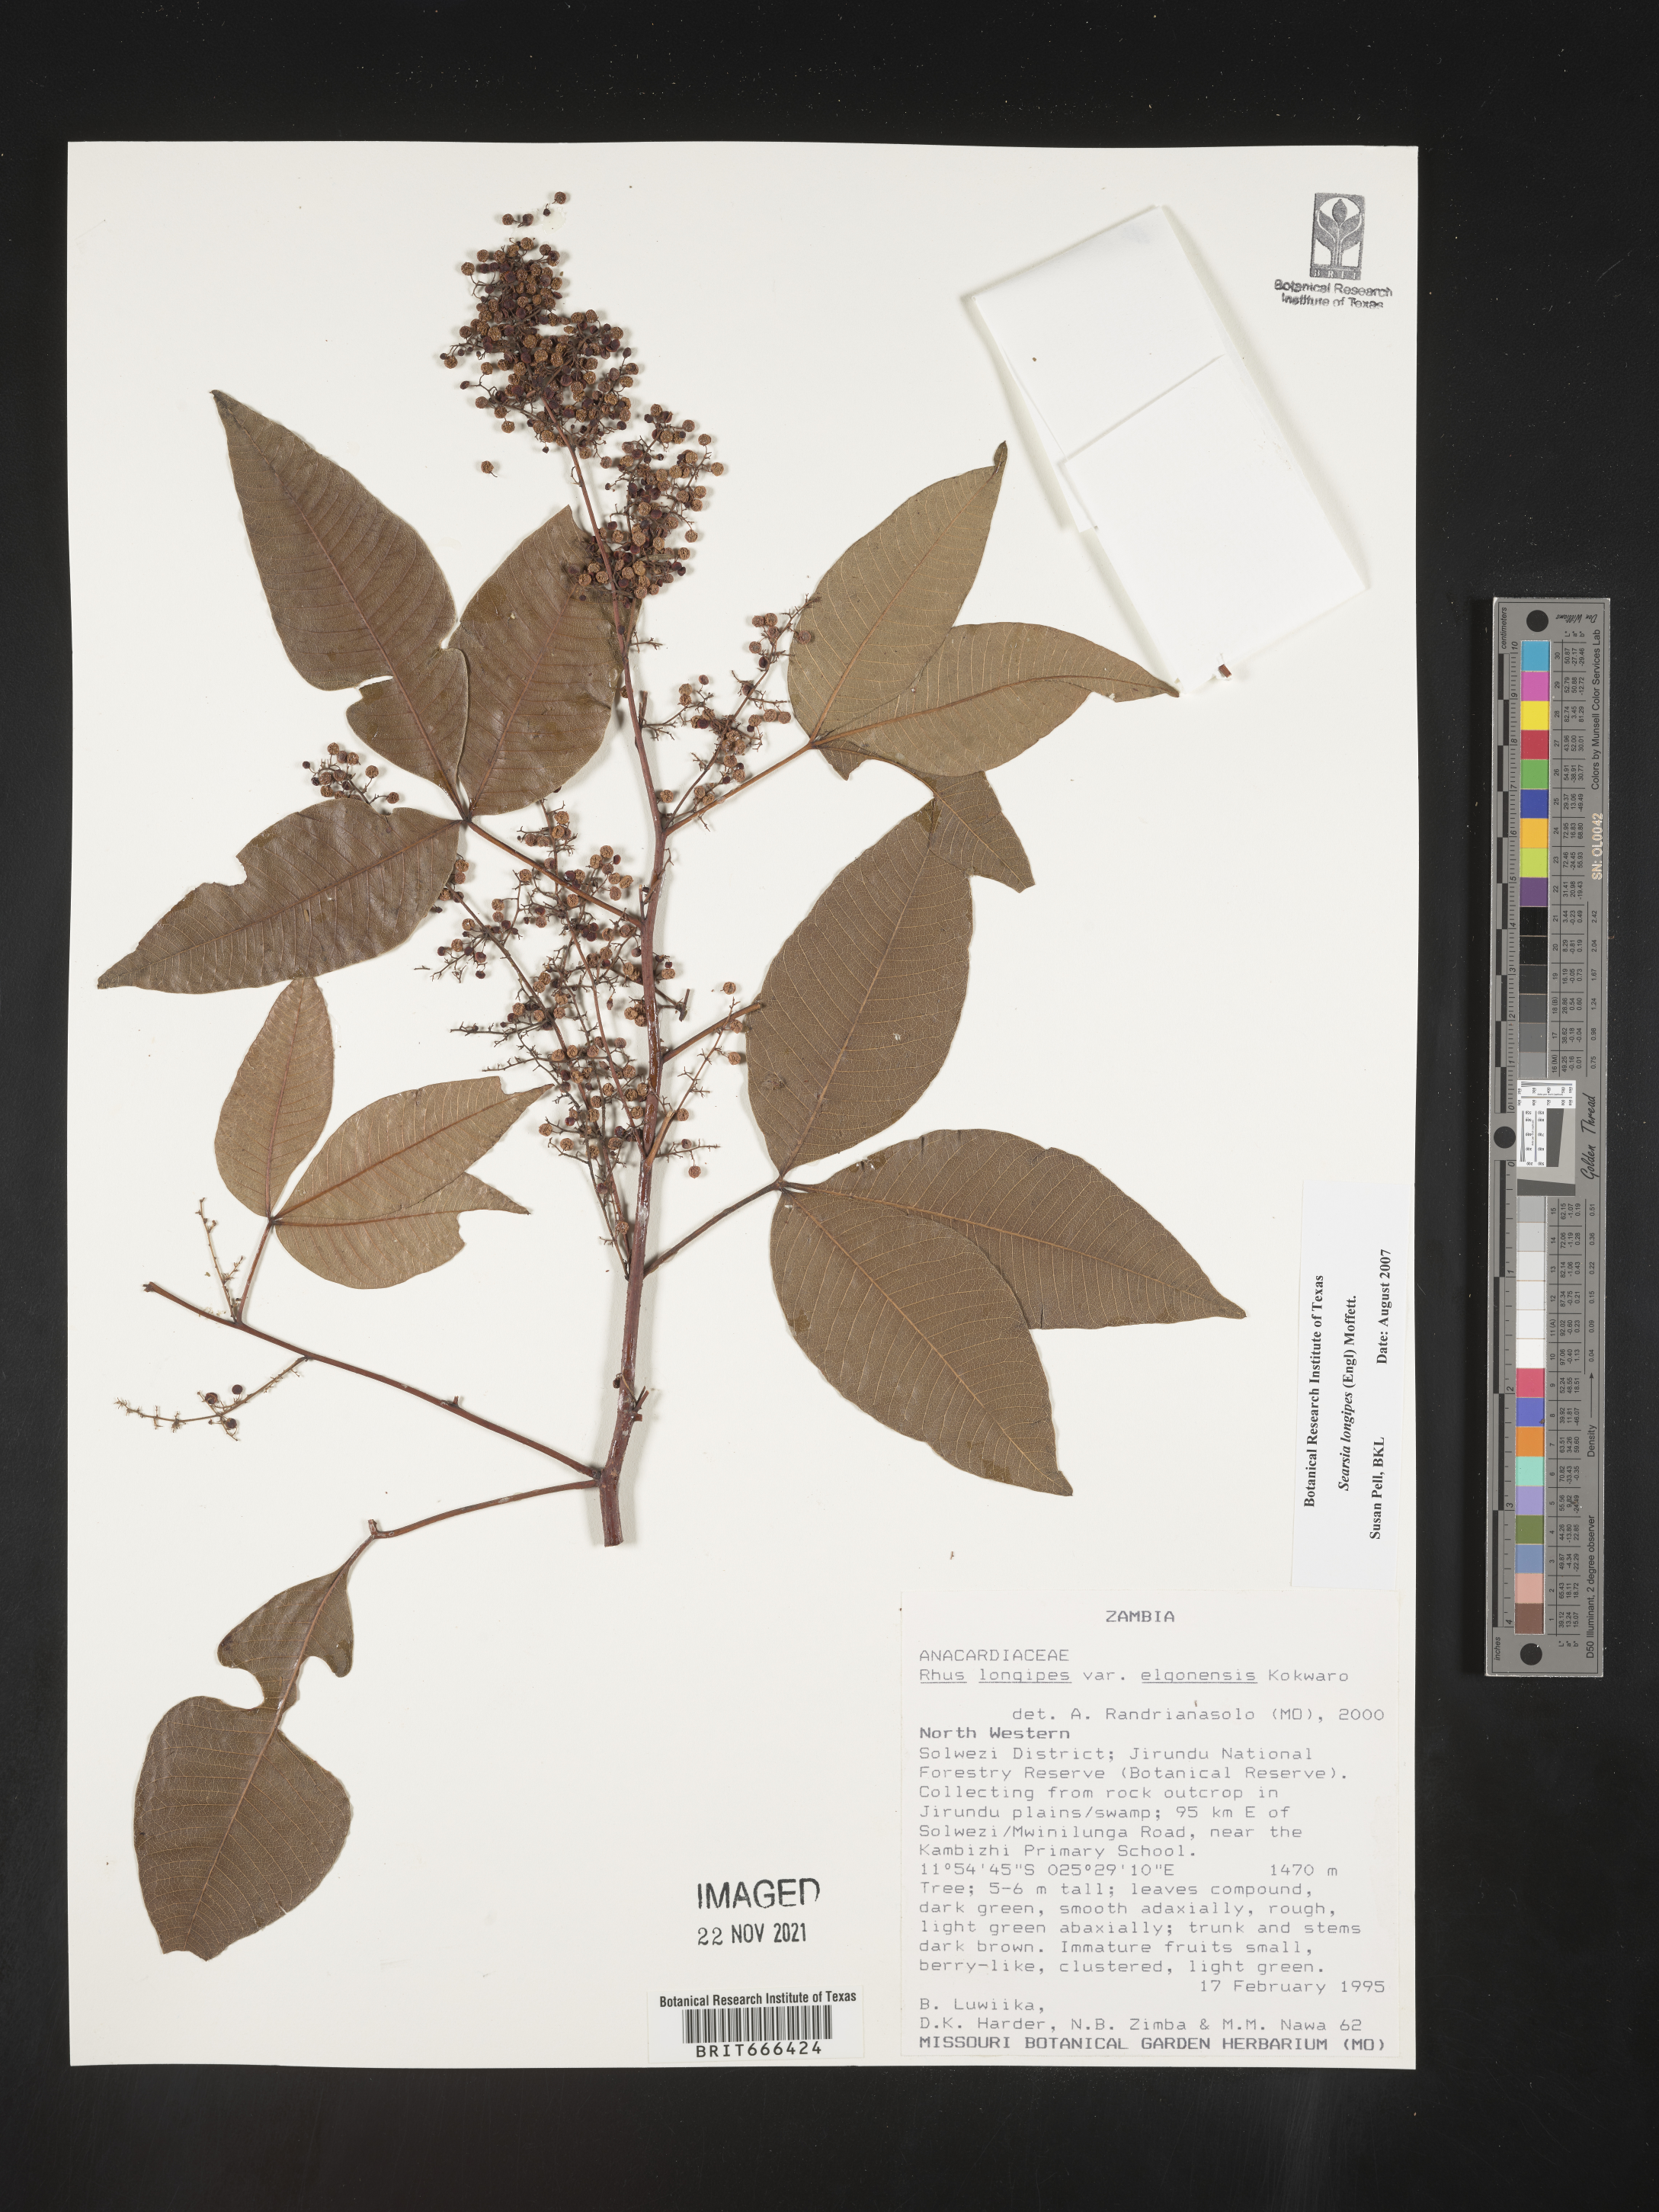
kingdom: Plantae
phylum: Tracheophyta
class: Magnoliopsida
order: Sapindales
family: Anacardiaceae
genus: Searsia
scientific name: Searsia longipes
